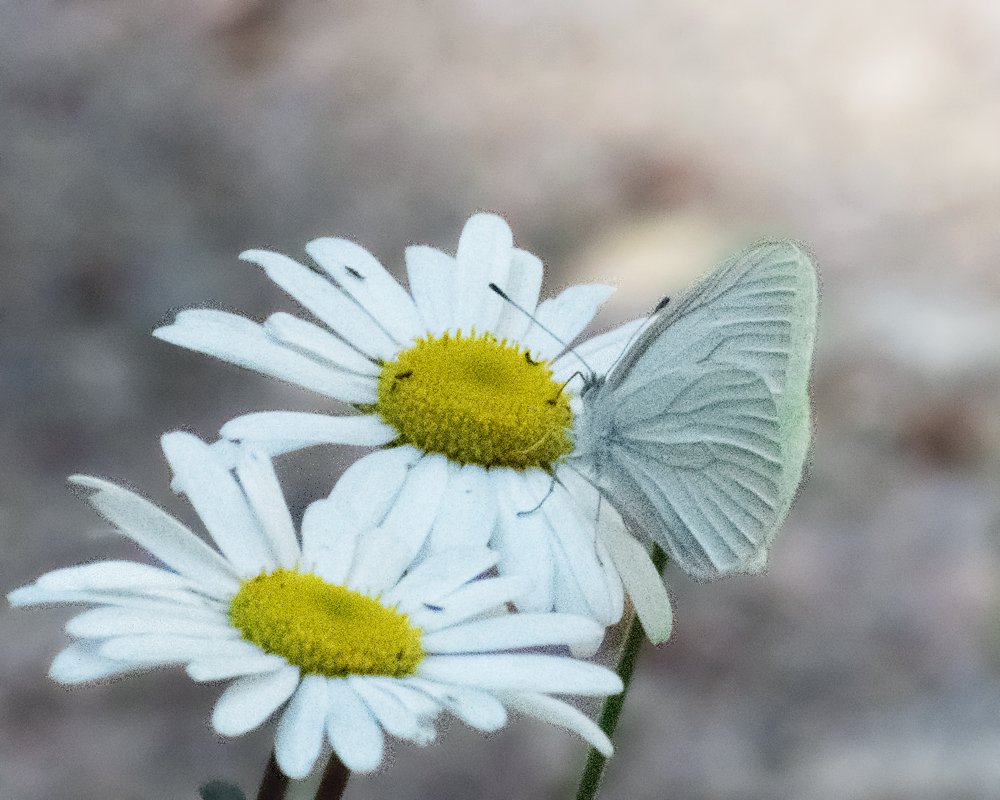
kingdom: Animalia
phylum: Arthropoda
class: Insecta
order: Lepidoptera
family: Pieridae
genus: Pieris
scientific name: Pieris marginalis
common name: Margined White
